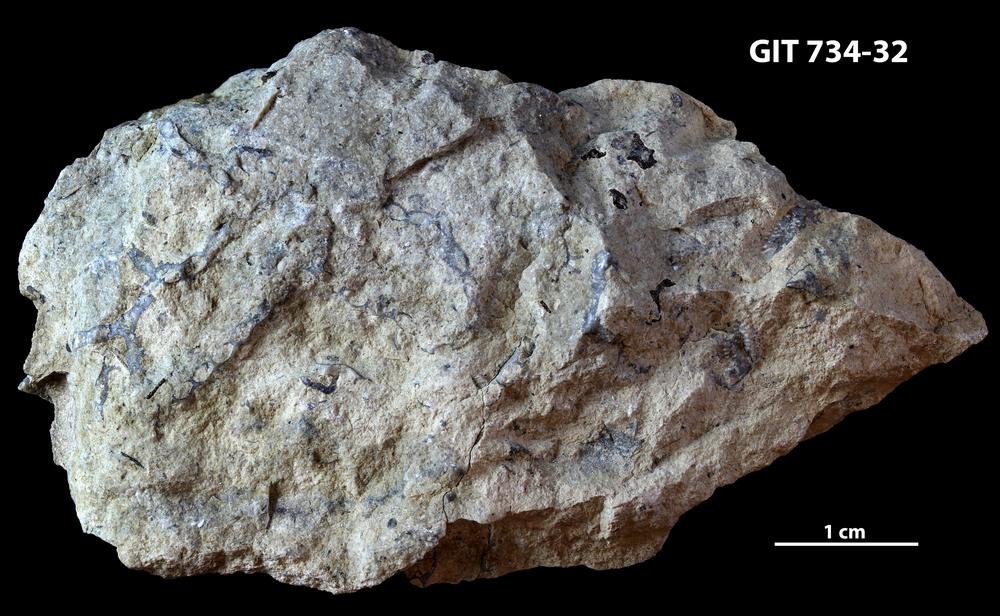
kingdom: Animalia
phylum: Cnidaria
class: Anthozoa
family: Halysitidae
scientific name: Halysitidae
